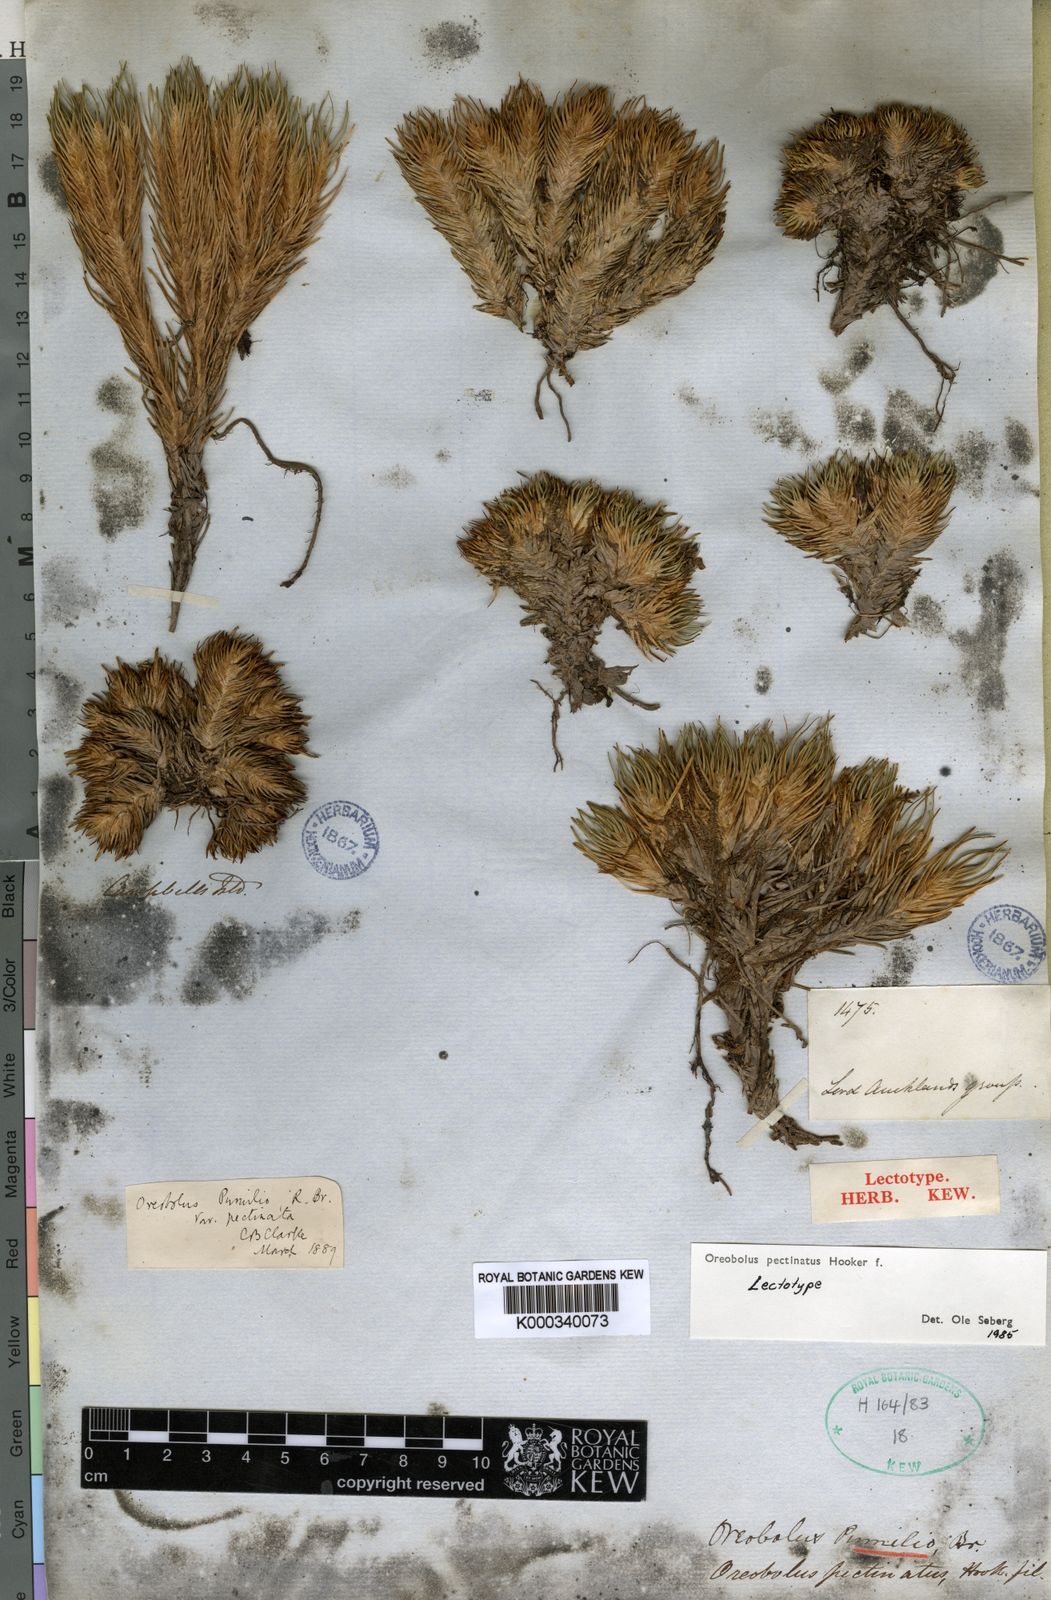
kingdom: Plantae
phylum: Tracheophyta
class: Liliopsida
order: Poales
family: Cyperaceae
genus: Oreobolus
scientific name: Oreobolus pectinatus
